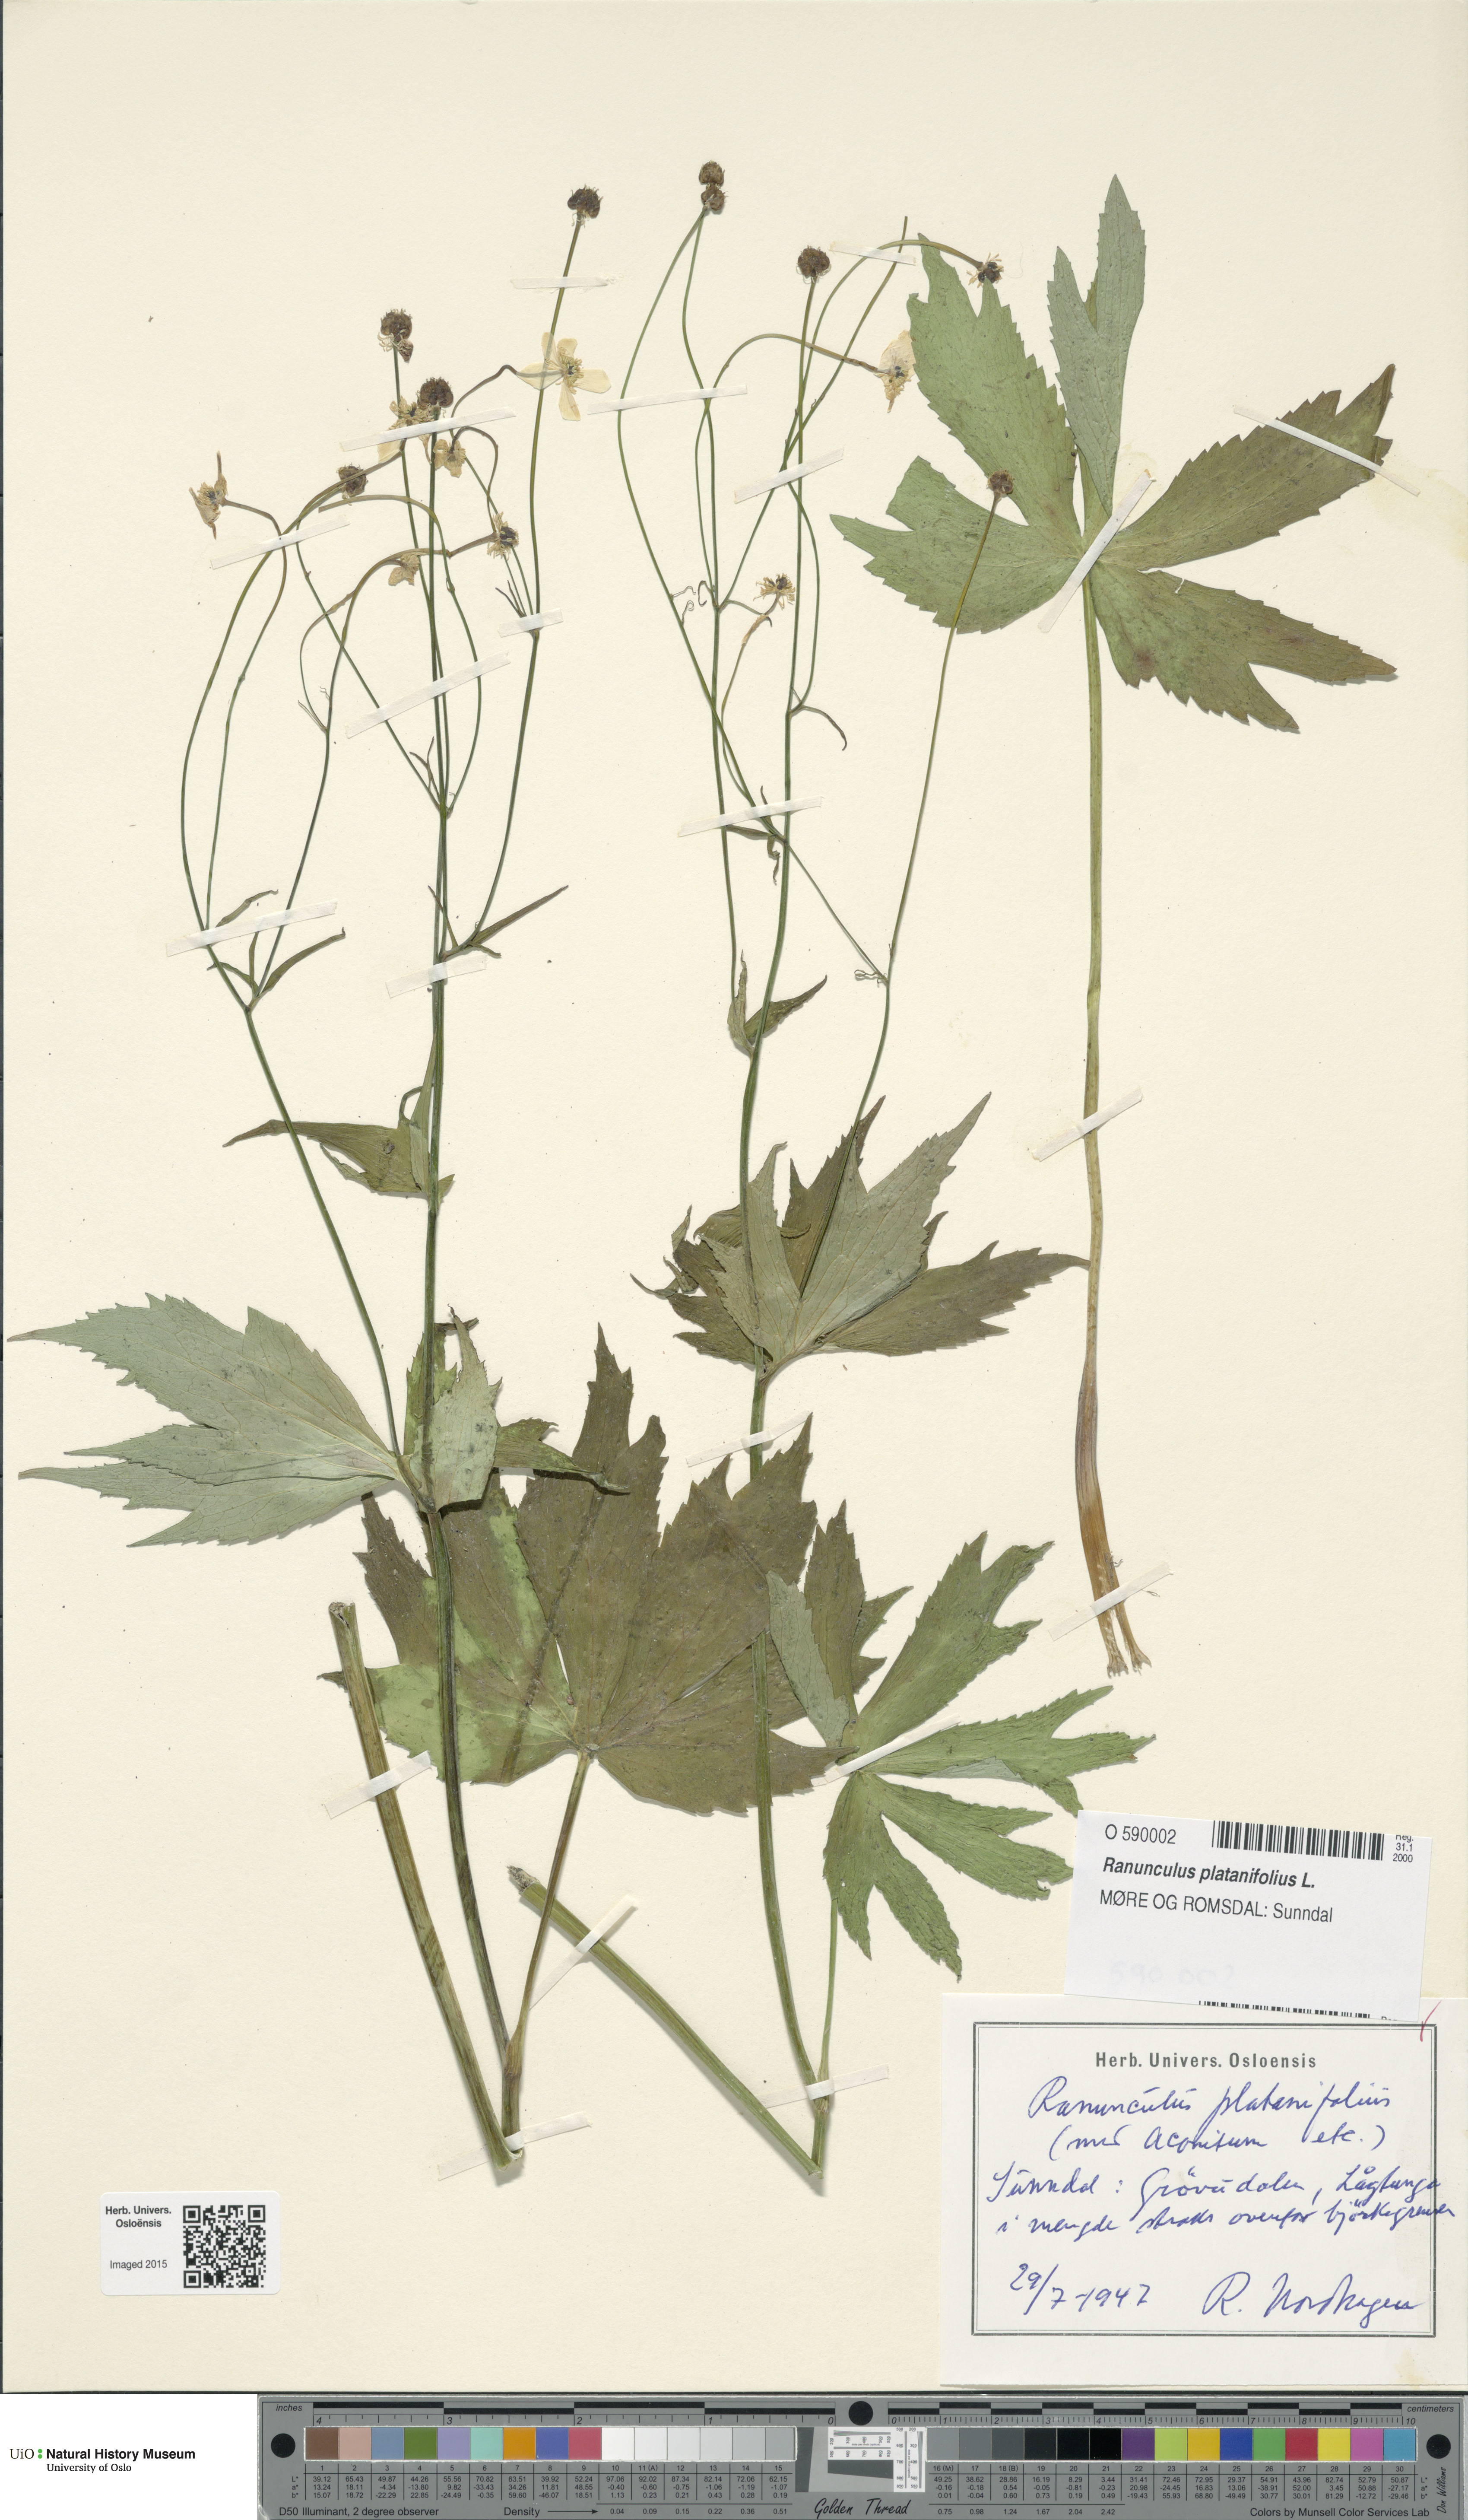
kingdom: Plantae
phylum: Tracheophyta
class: Magnoliopsida
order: Ranunculales
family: Ranunculaceae
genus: Ranunculus
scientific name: Ranunculus platanifolius
